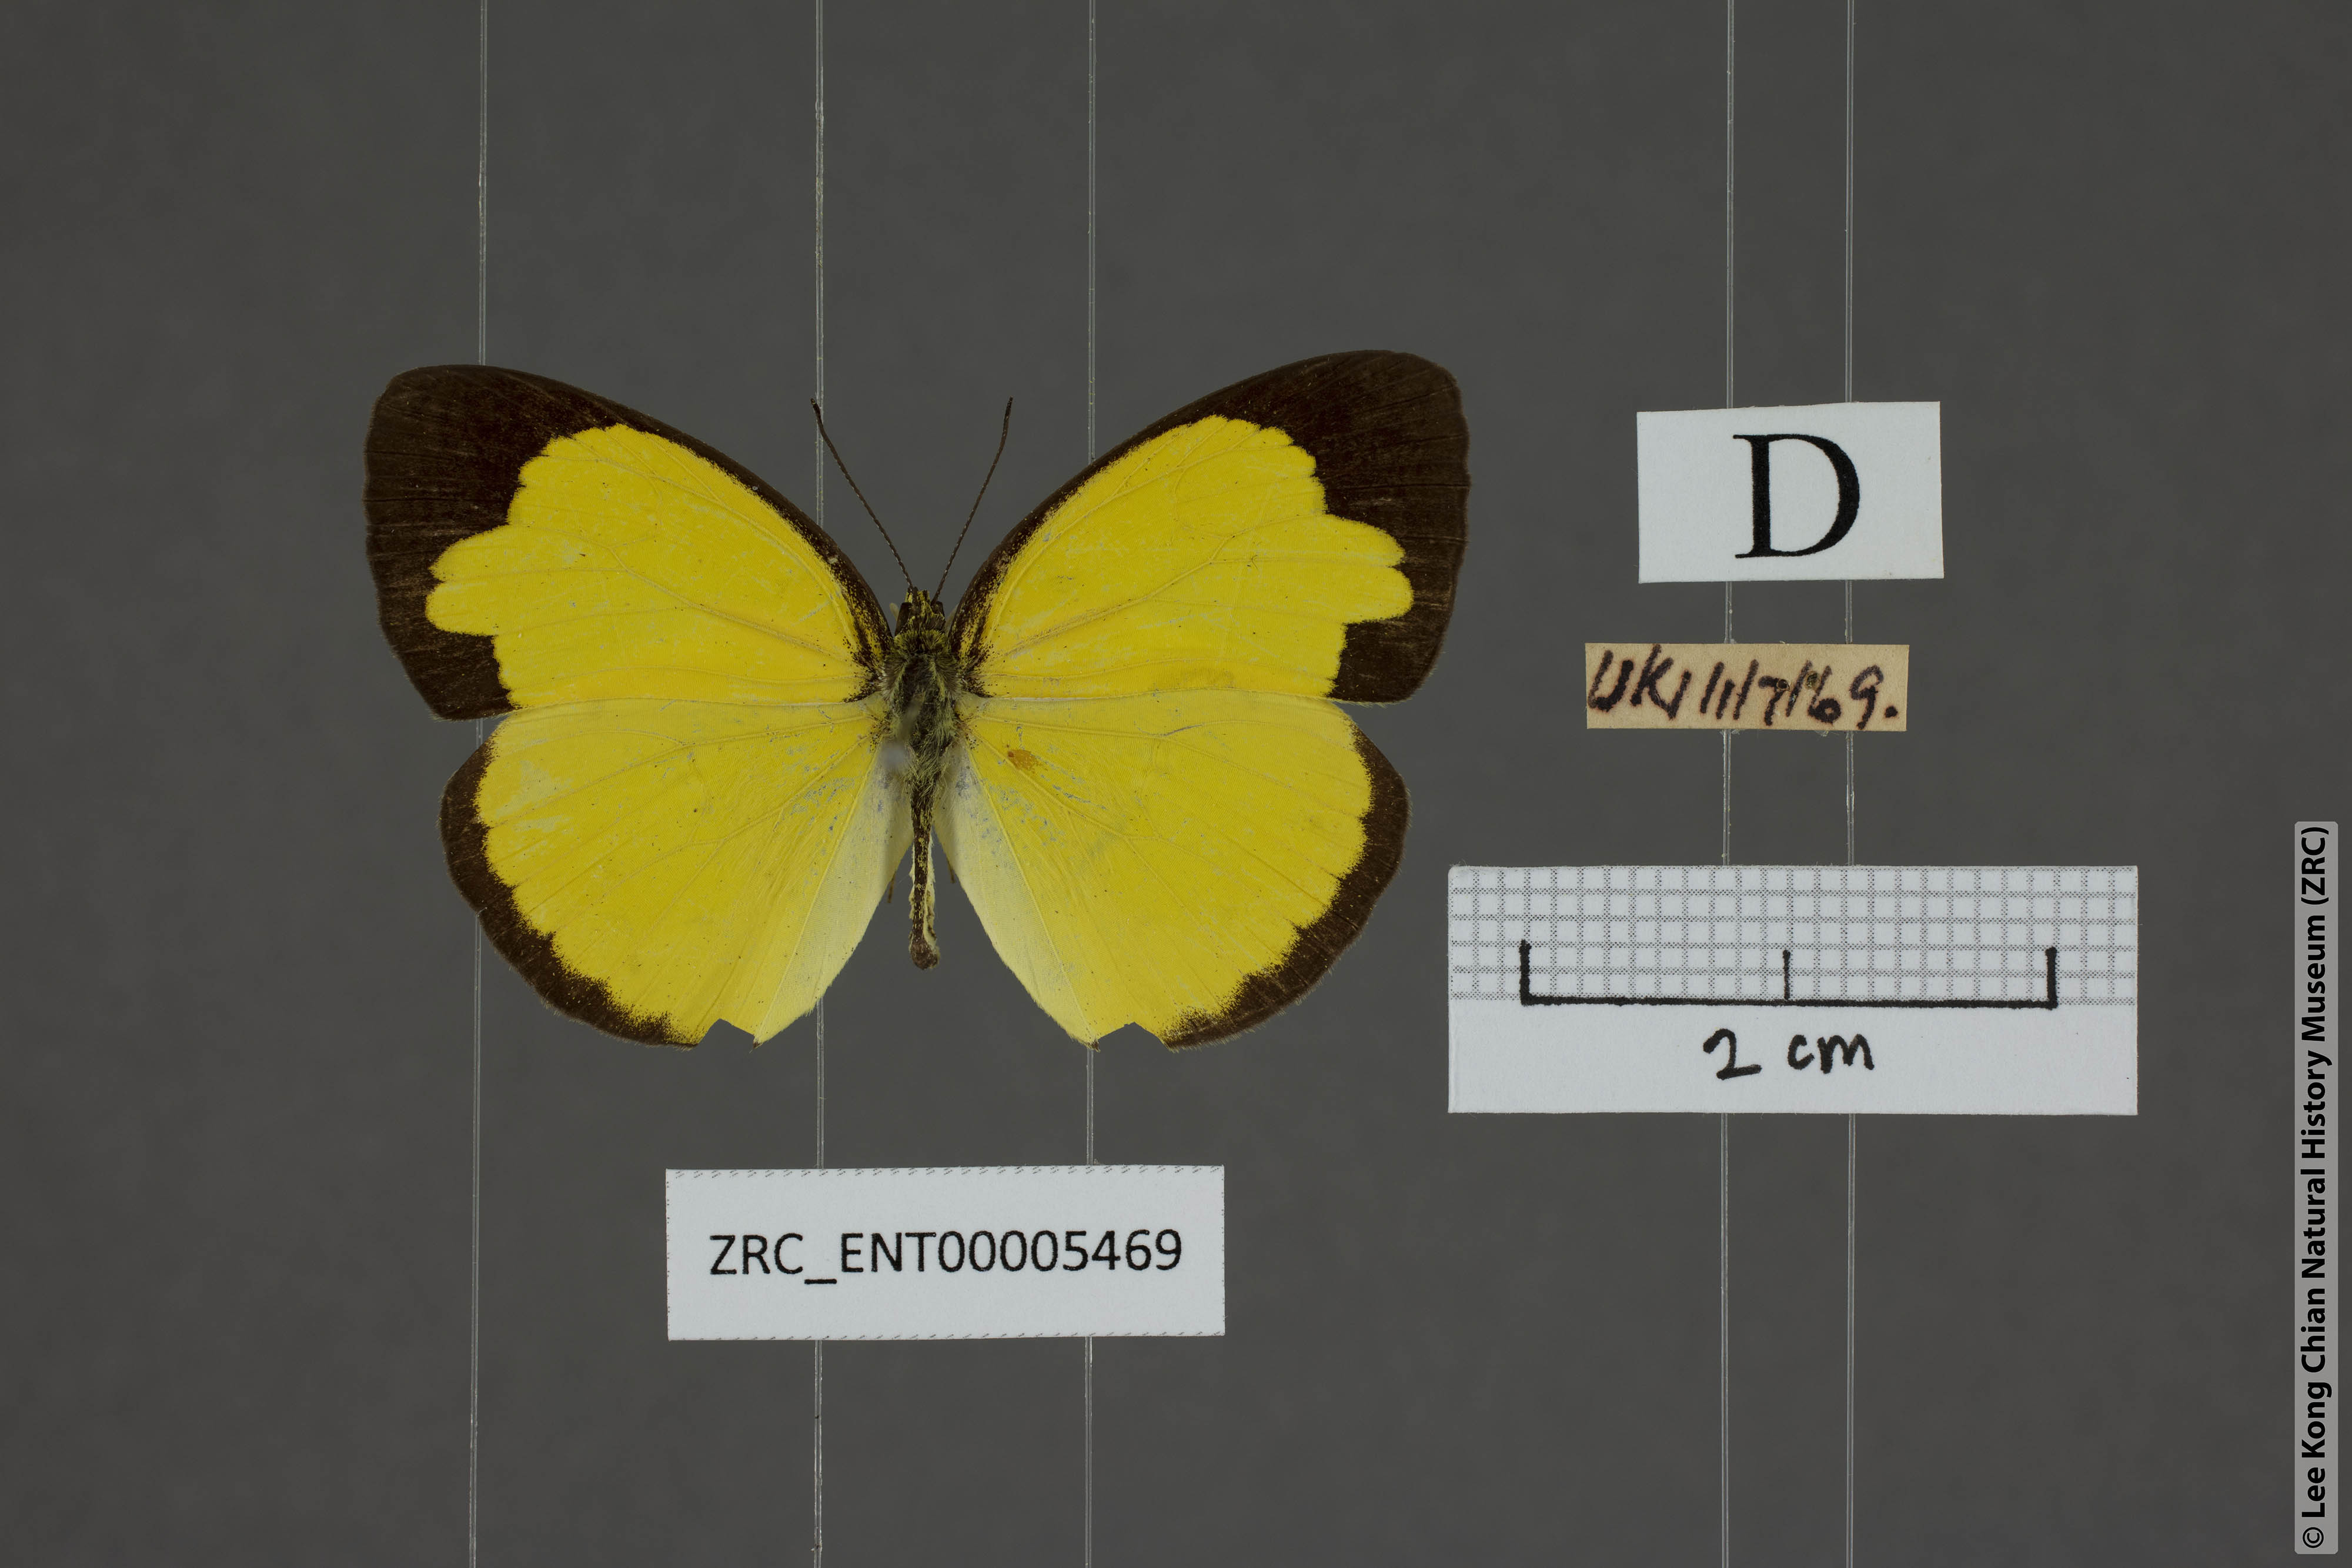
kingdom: Animalia
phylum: Arthropoda
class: Insecta
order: Lepidoptera
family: Pieridae
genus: Eurema
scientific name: Eurema sari
